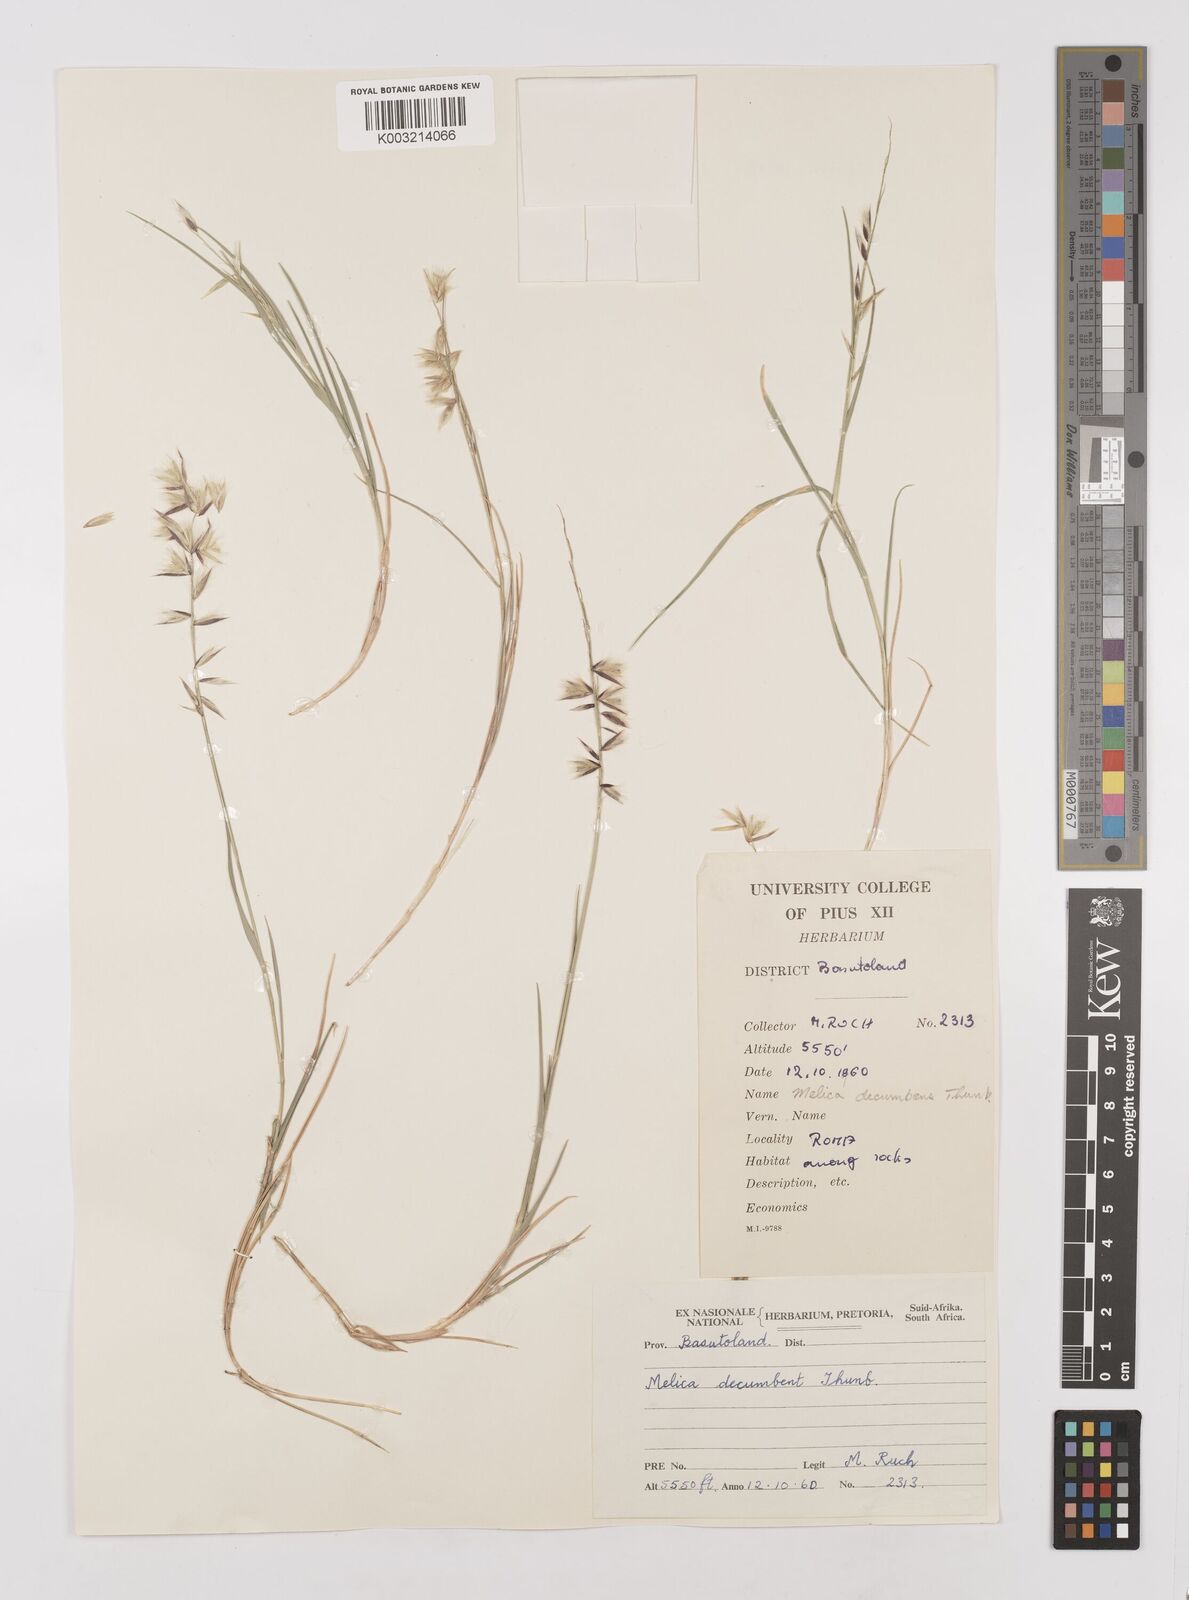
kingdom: Plantae
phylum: Tracheophyta
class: Liliopsida
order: Poales
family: Poaceae
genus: Melica
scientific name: Melica dendroides
